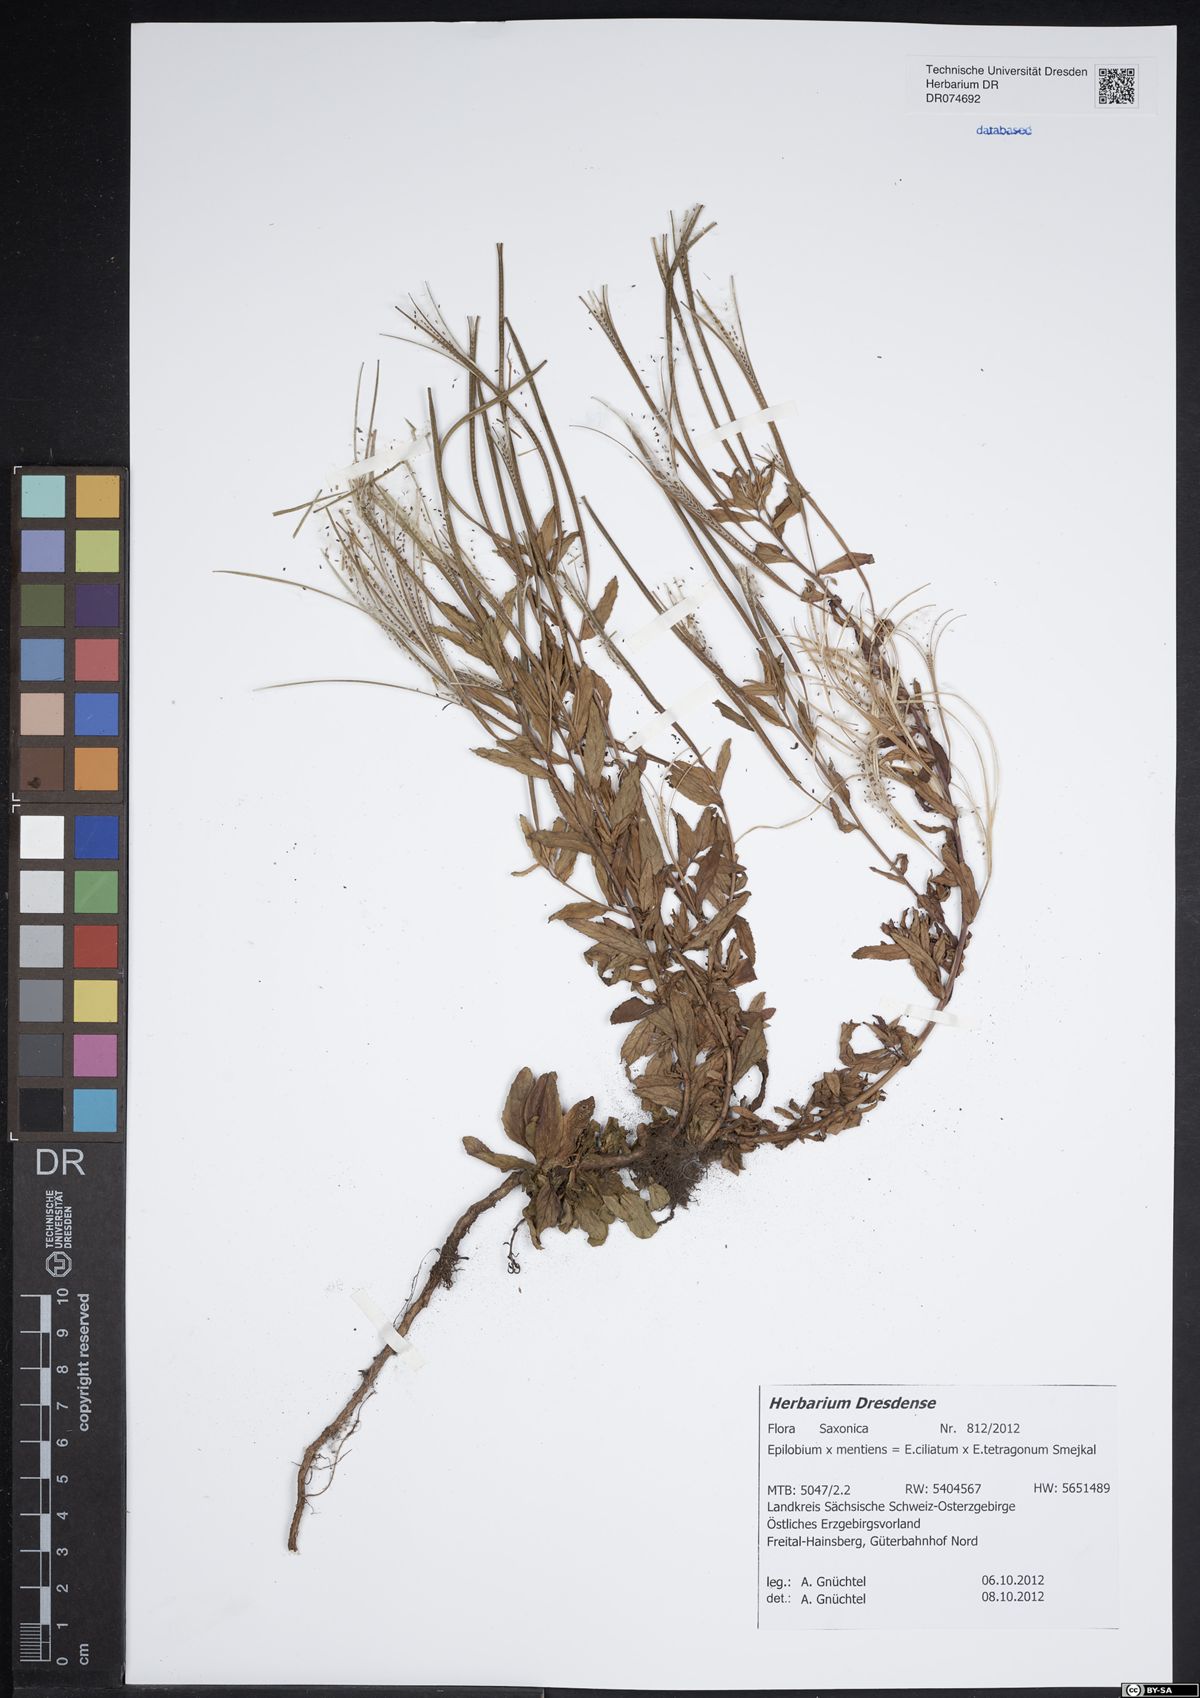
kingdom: Plantae
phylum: Tracheophyta
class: Magnoliopsida
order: Myrtales
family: Onagraceae
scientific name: Onagraceae
